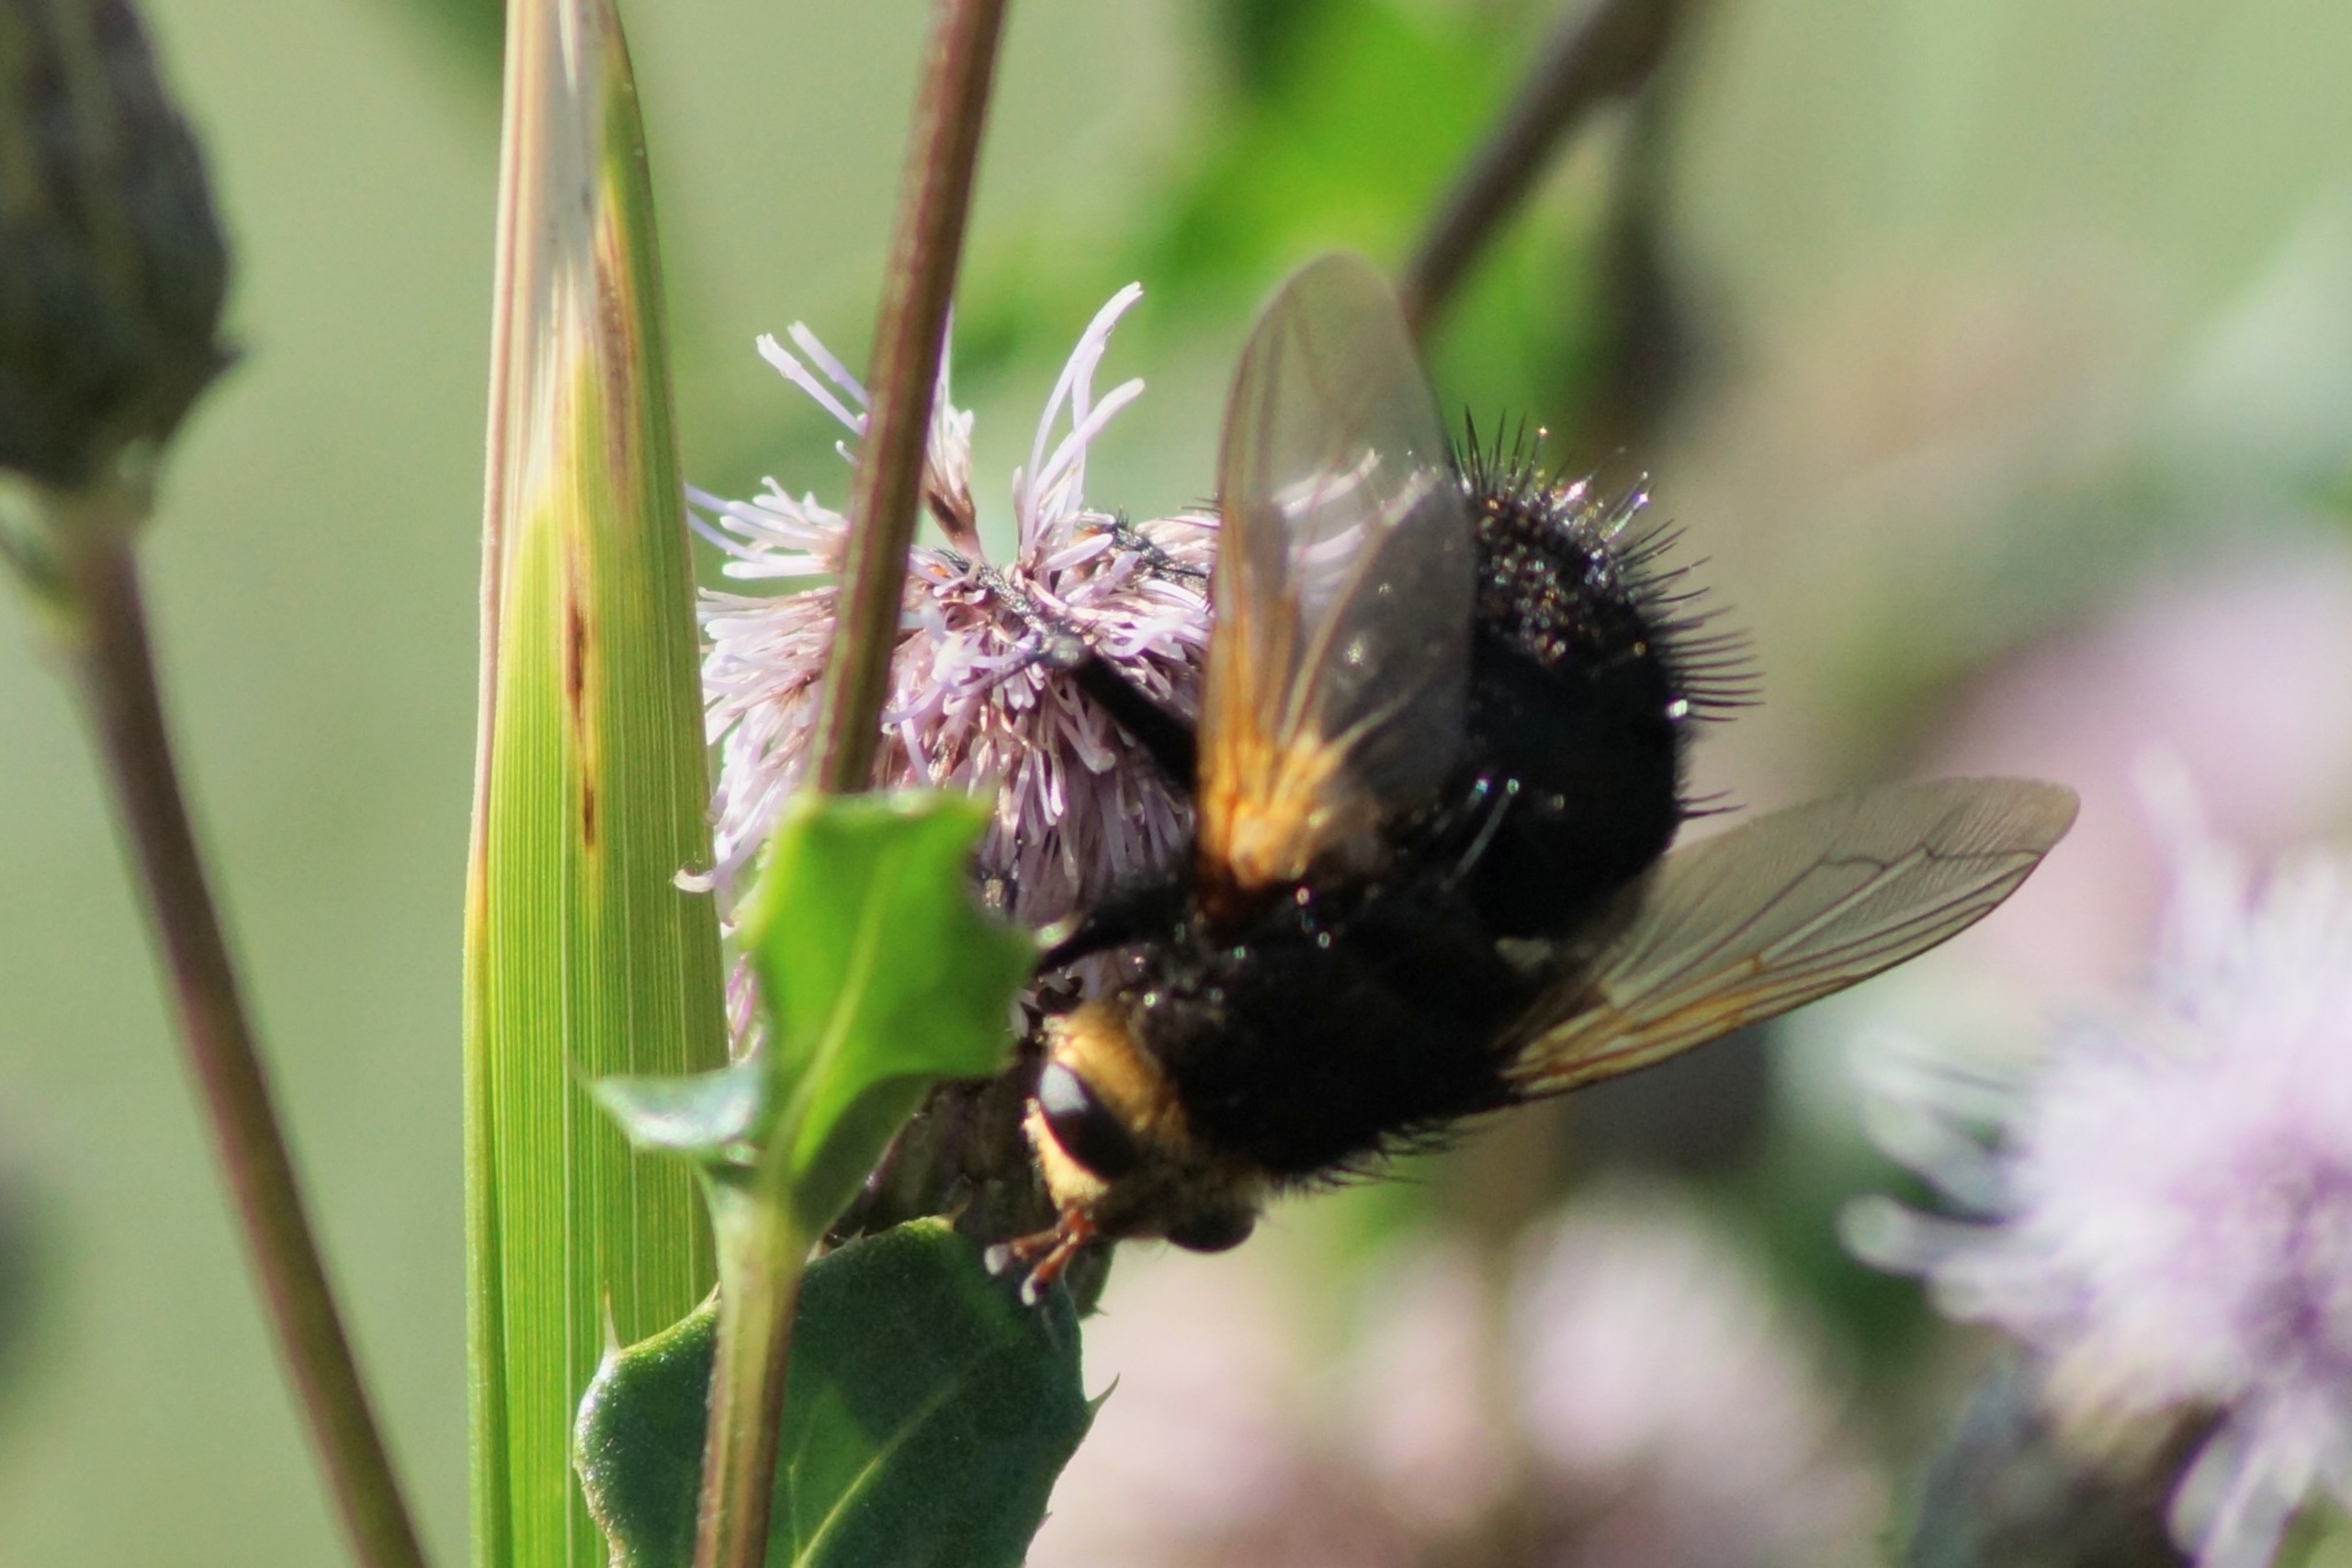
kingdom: Animalia
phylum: Arthropoda
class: Insecta
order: Diptera
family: Tachinidae
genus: Tachina
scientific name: Tachina grossa
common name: Kæmpefluen Harald
